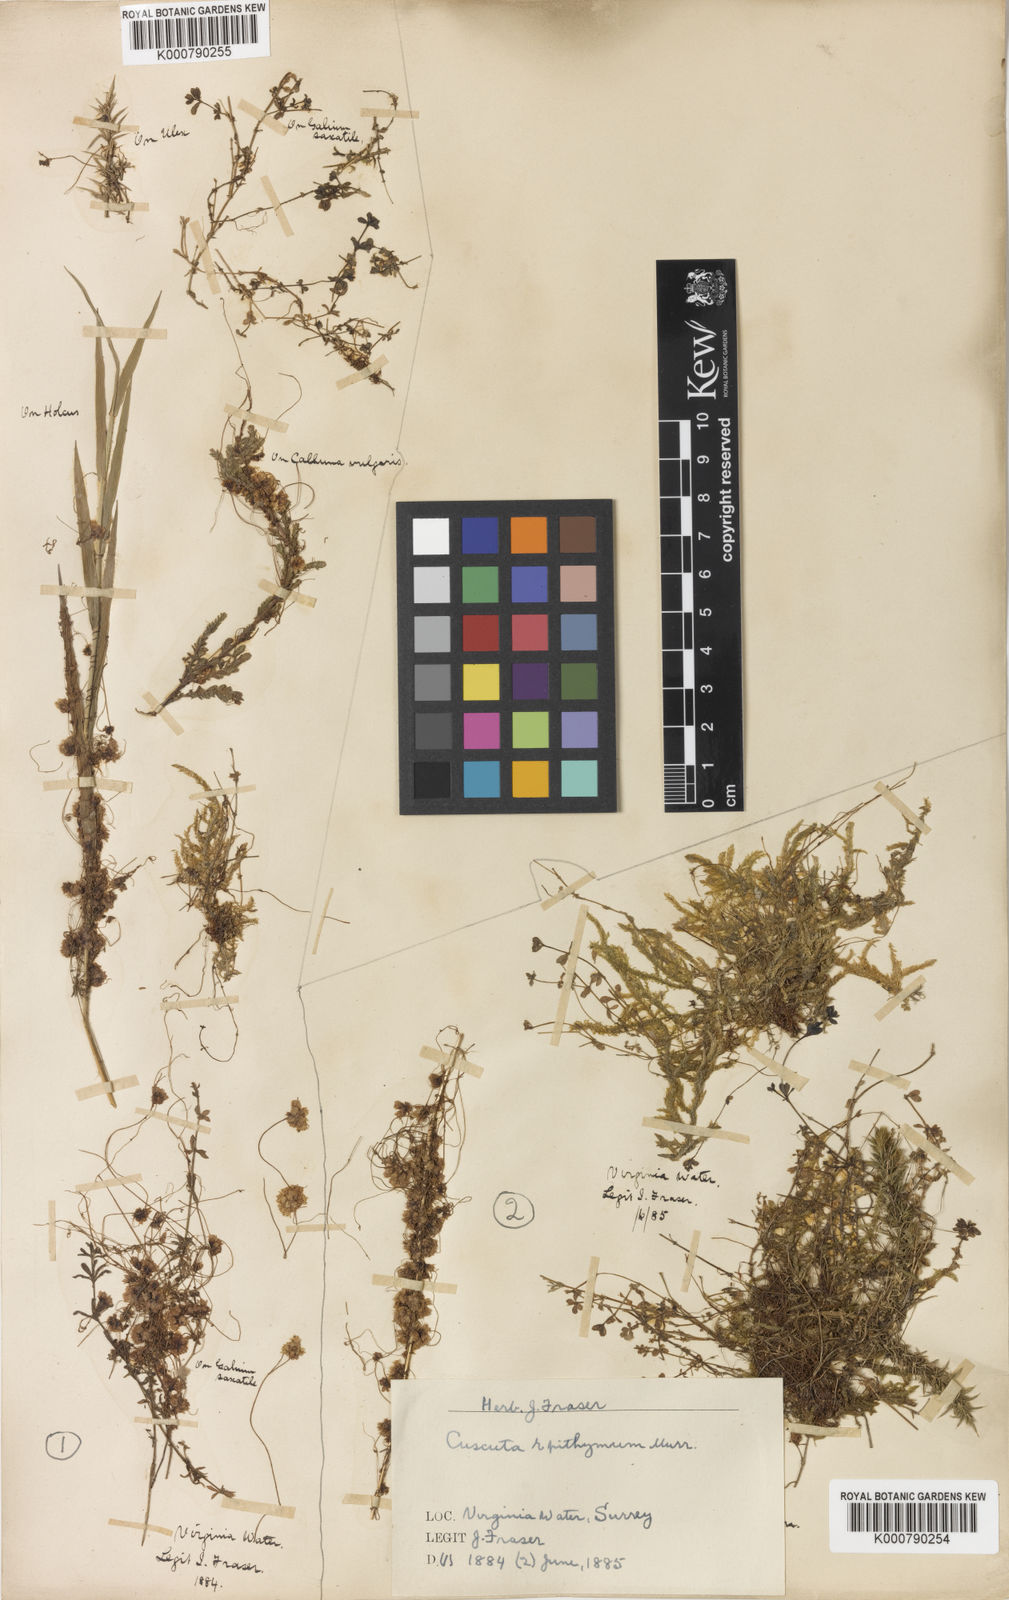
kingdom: Plantae
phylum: Tracheophyta
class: Magnoliopsida
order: Solanales
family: Convolvulaceae
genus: Cuscuta
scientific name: Cuscuta epithymum
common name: Clover dodder
